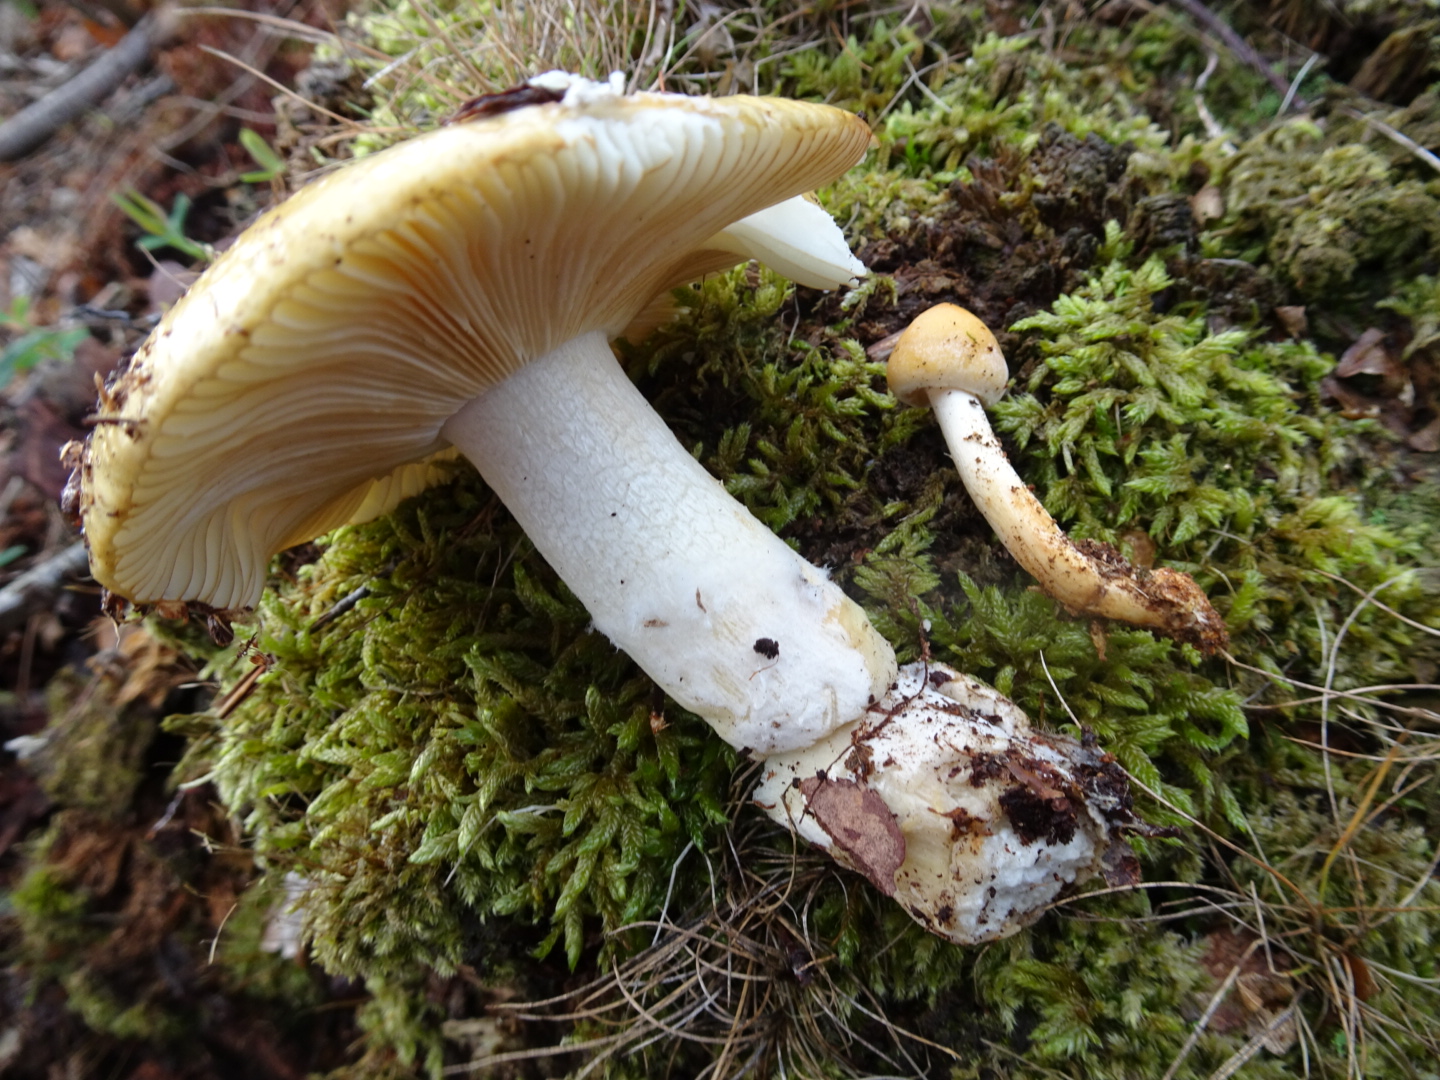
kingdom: Fungi
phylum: Basidiomycota
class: Agaricomycetes
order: Russulales
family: Russulaceae
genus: Russula
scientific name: Russula ochroleuca
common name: okkergul skørhat
